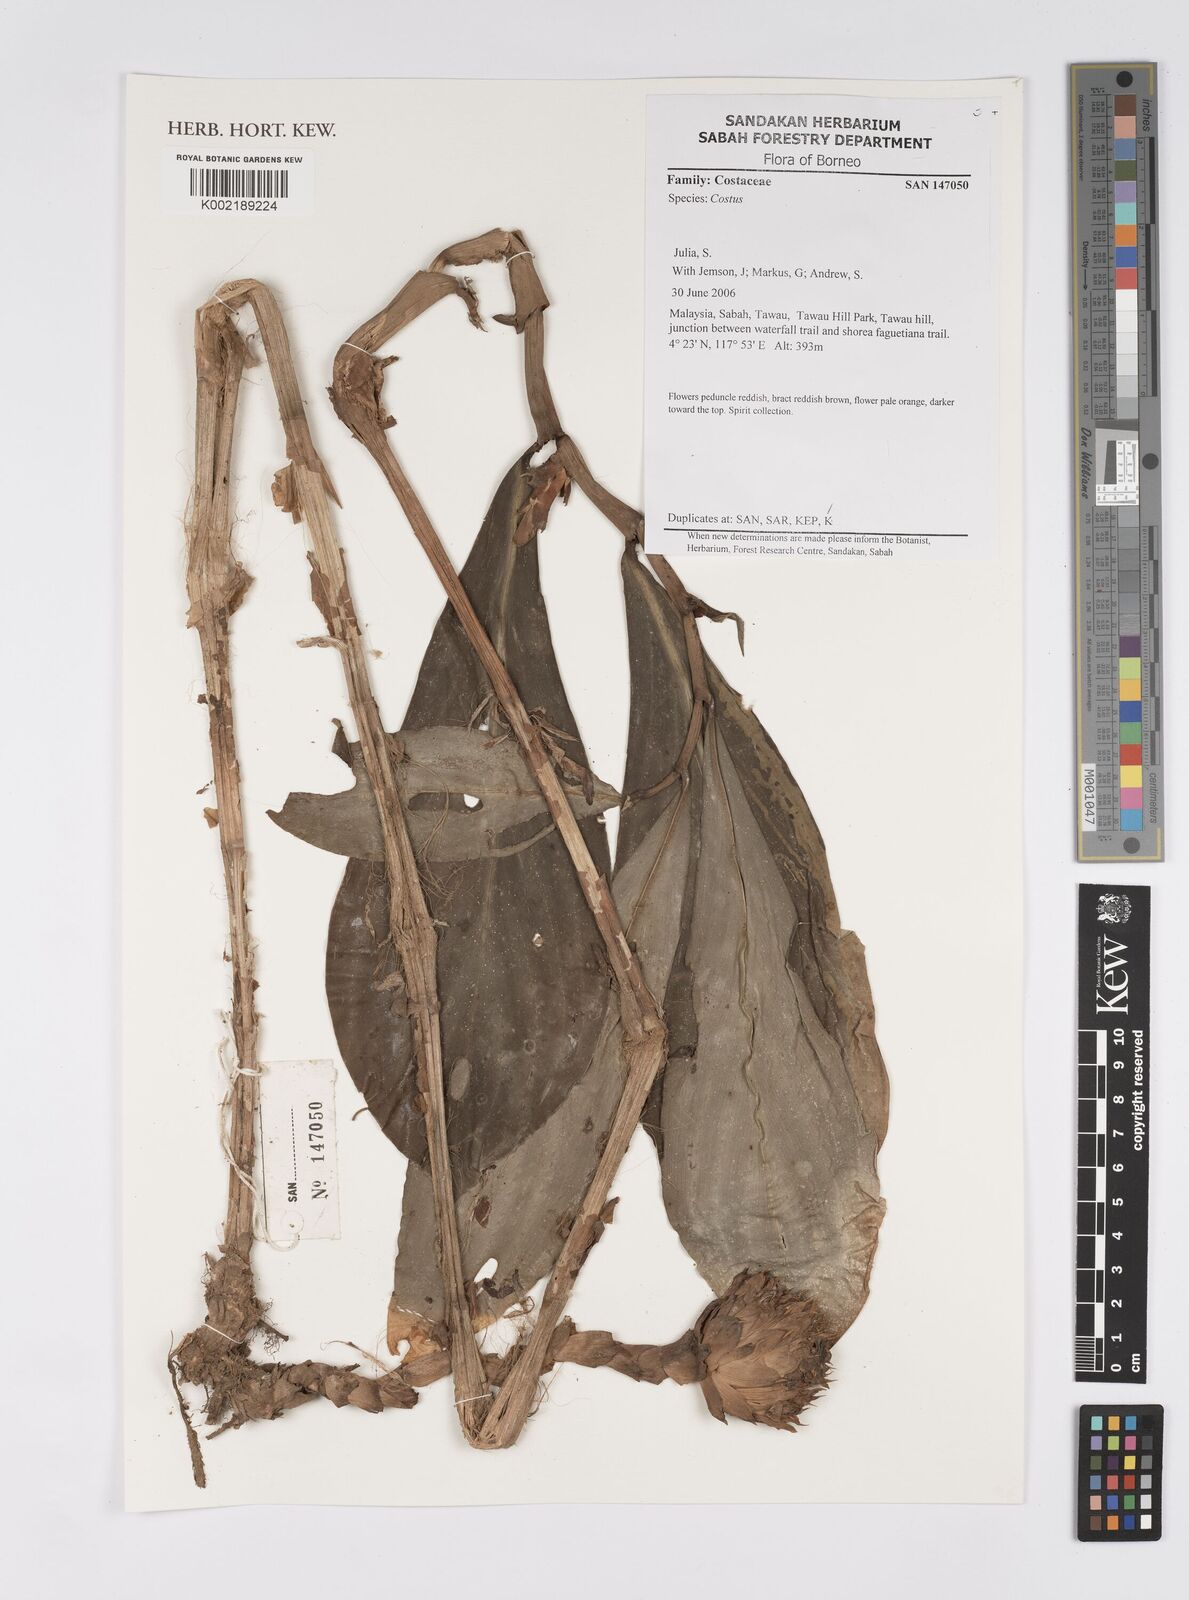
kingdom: Plantae
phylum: Tracheophyta
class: Liliopsida
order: Zingiberales
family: Costaceae
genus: Costus
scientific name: Costus
